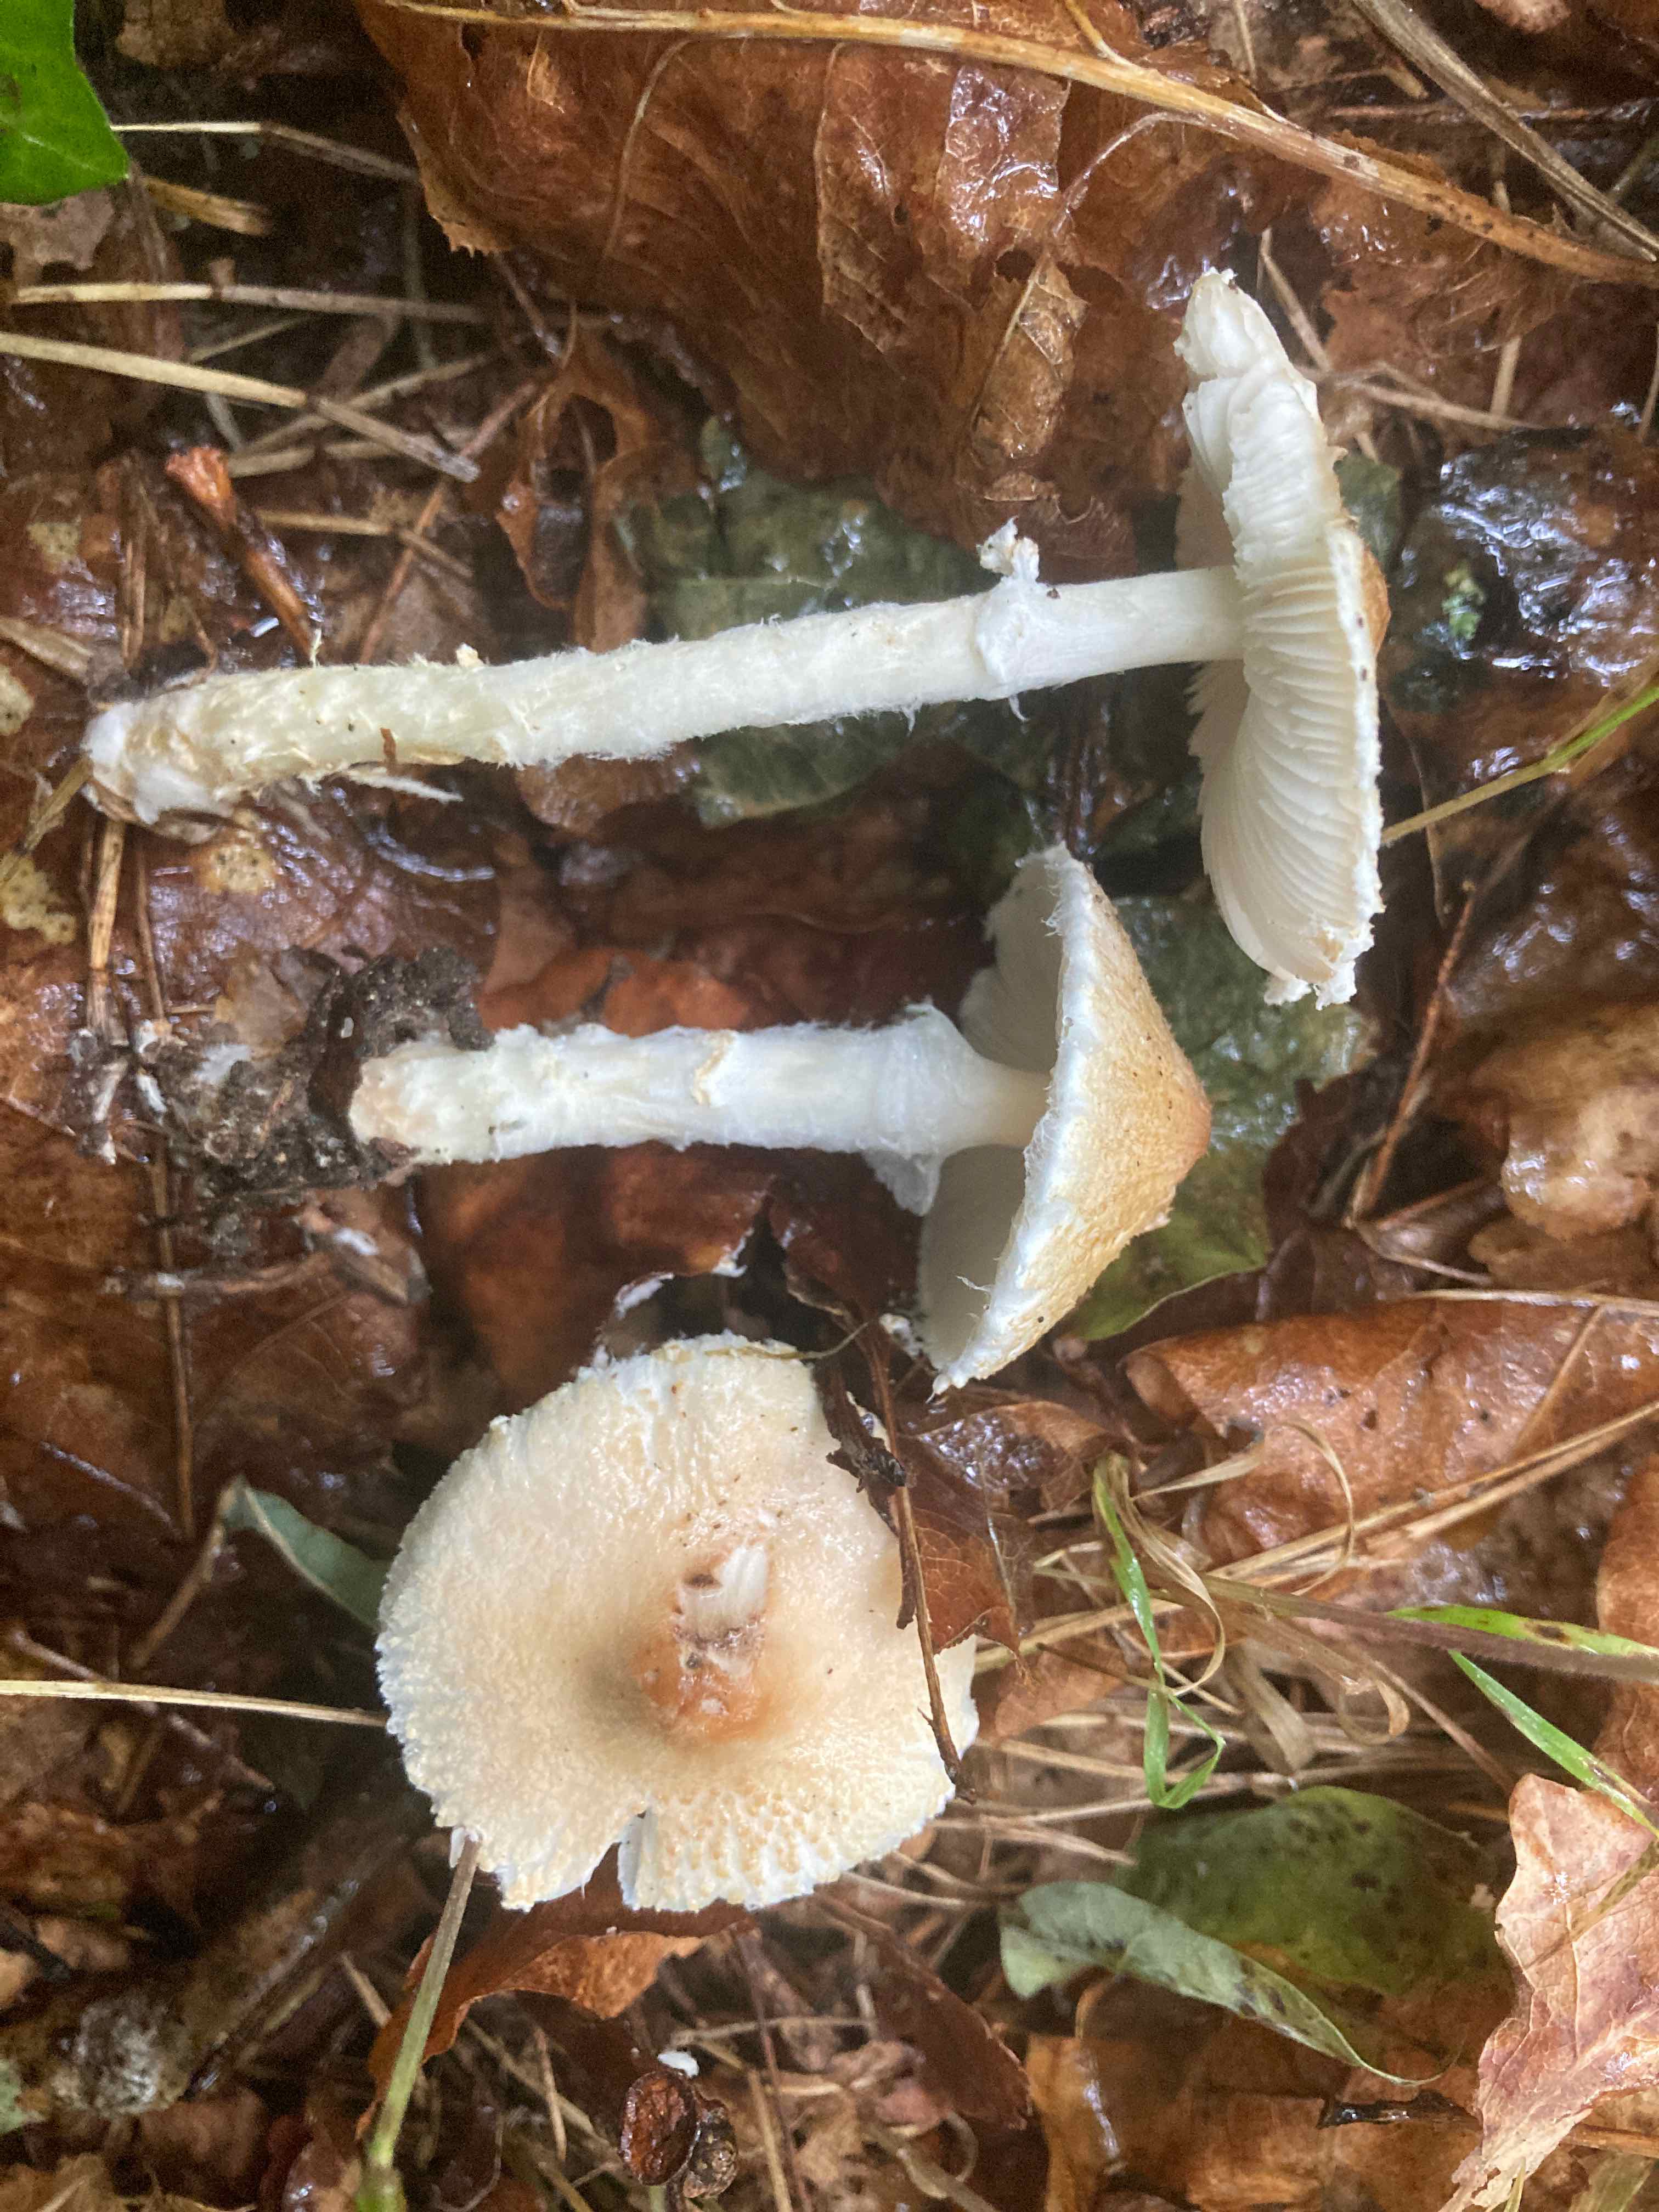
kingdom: Fungi
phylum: Basidiomycota
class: Agaricomycetes
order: Agaricales
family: Agaricaceae
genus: Lepiota
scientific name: Lepiota clypeolaria
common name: flosset parasolhat
